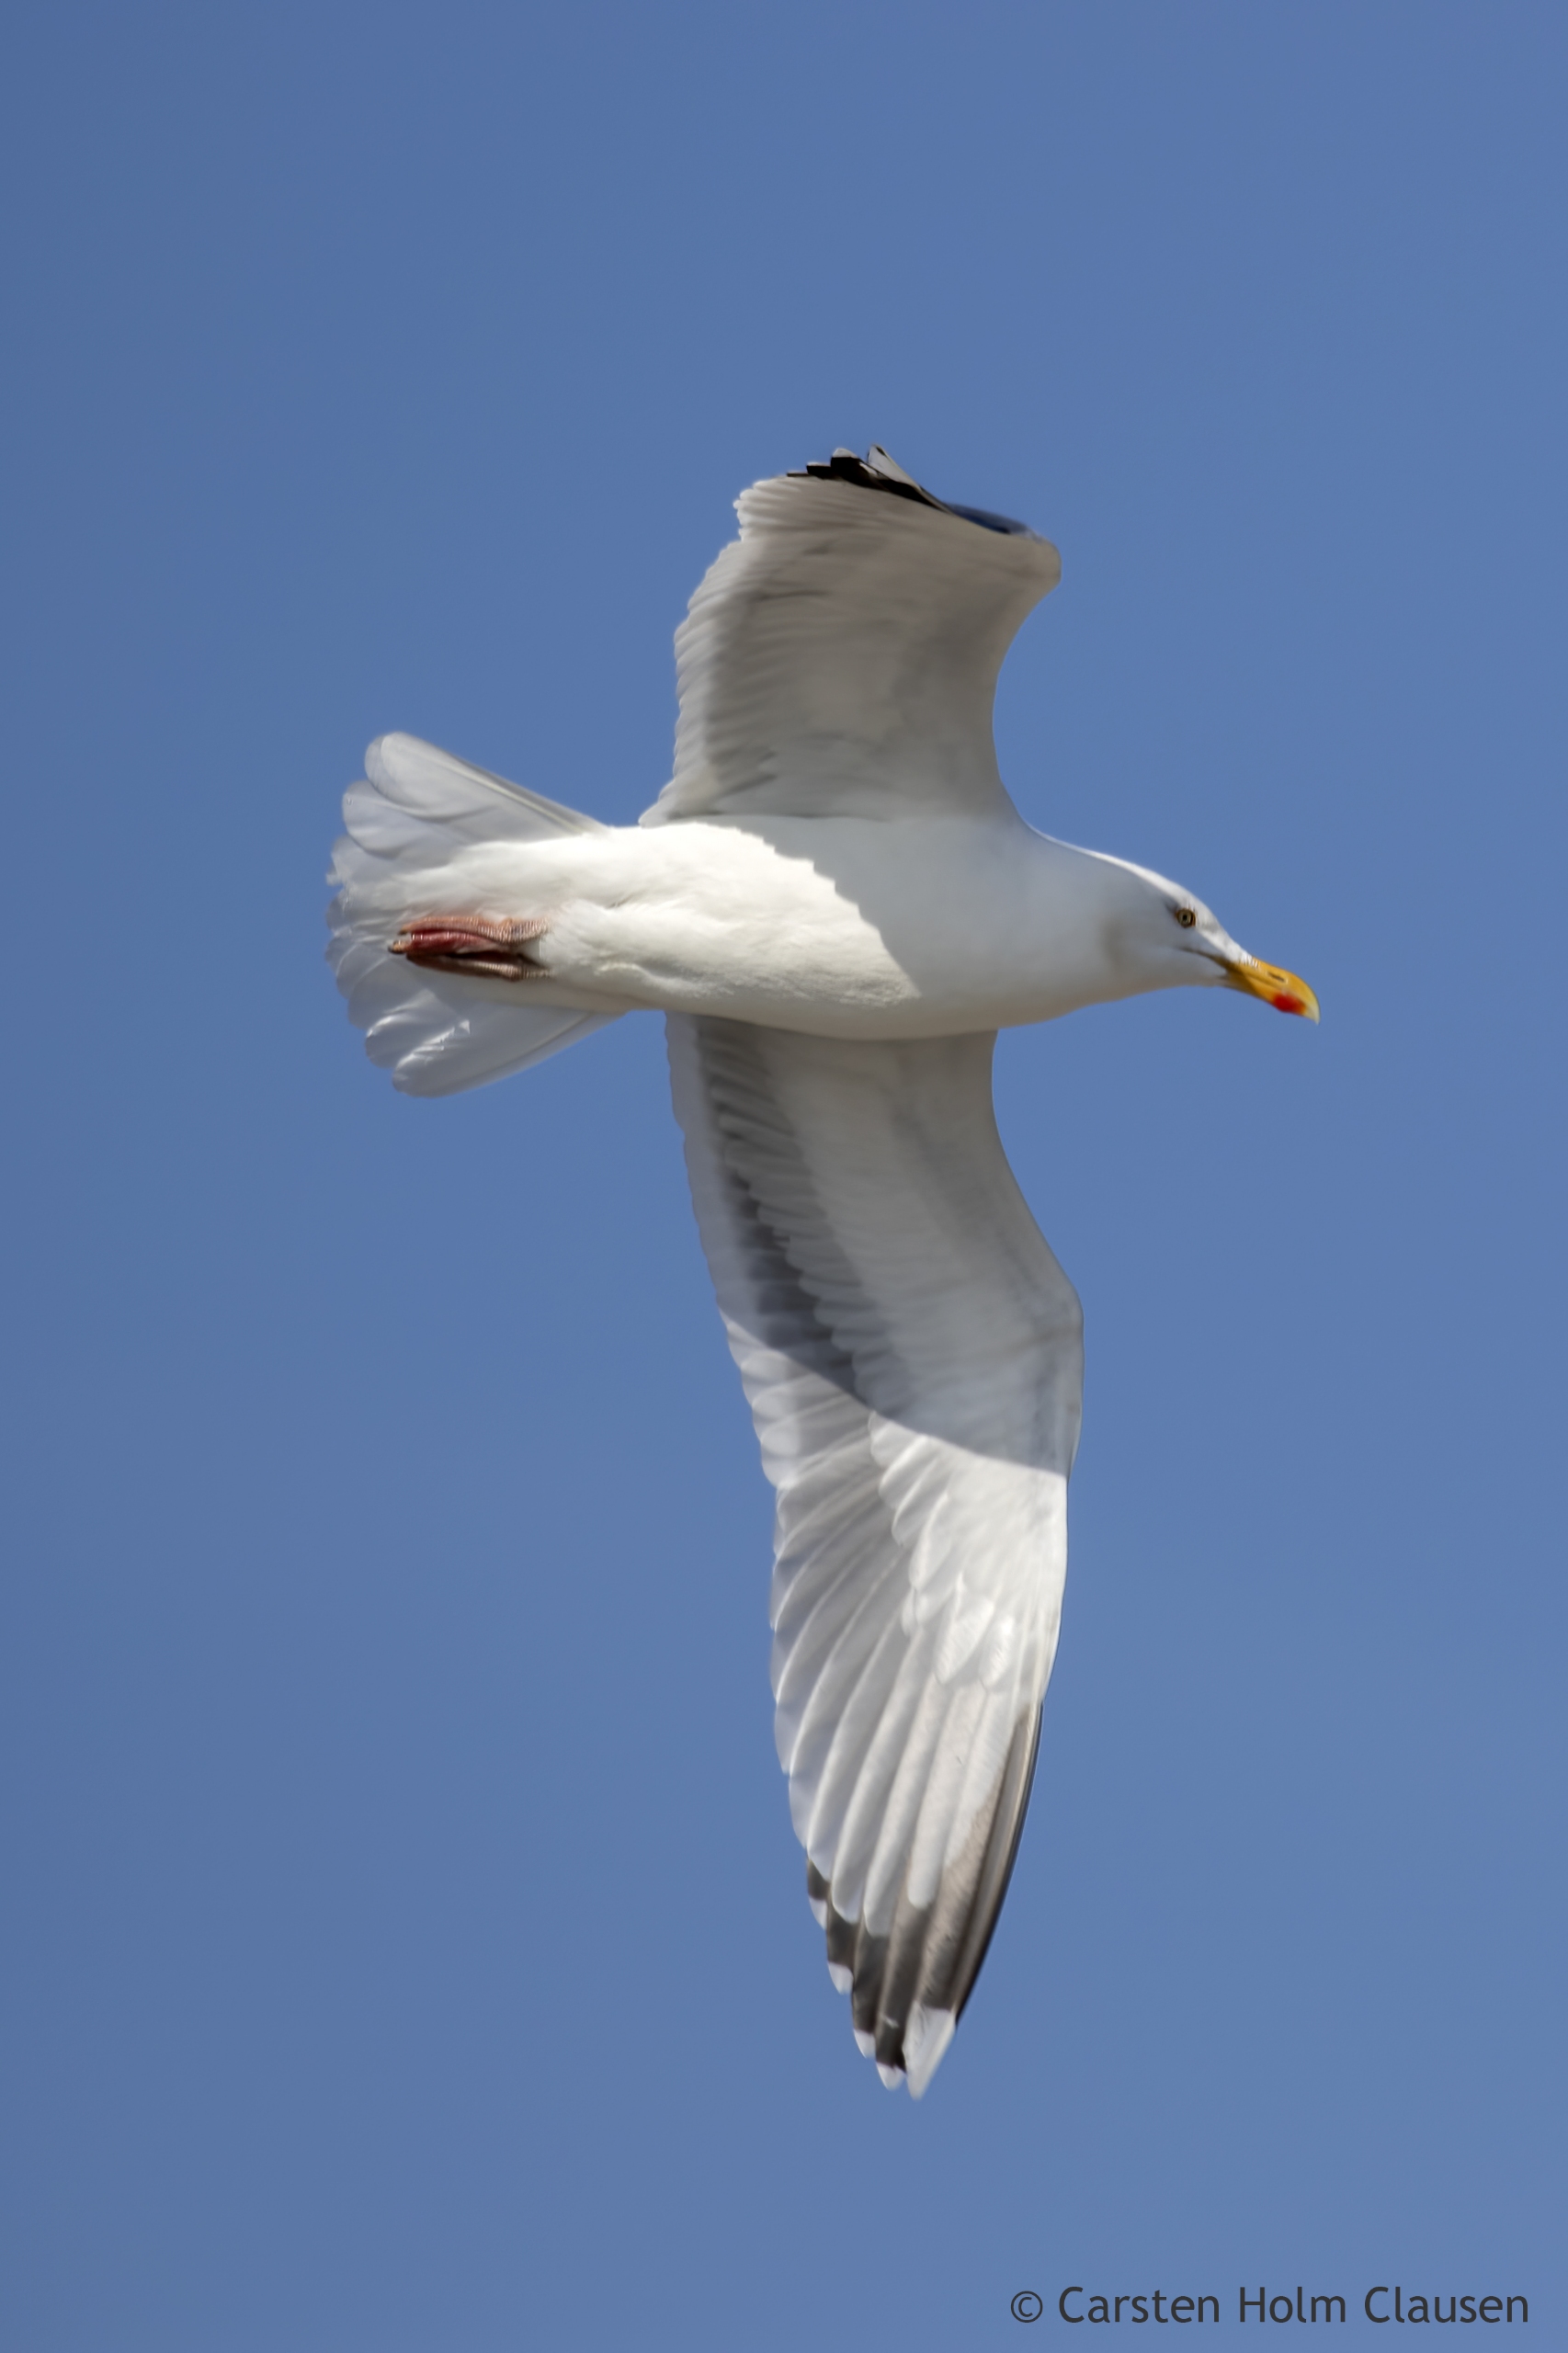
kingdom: Animalia
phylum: Chordata
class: Aves
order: Charadriiformes
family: Laridae
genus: Larus
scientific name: Larus argentatus
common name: Sølvmåge
